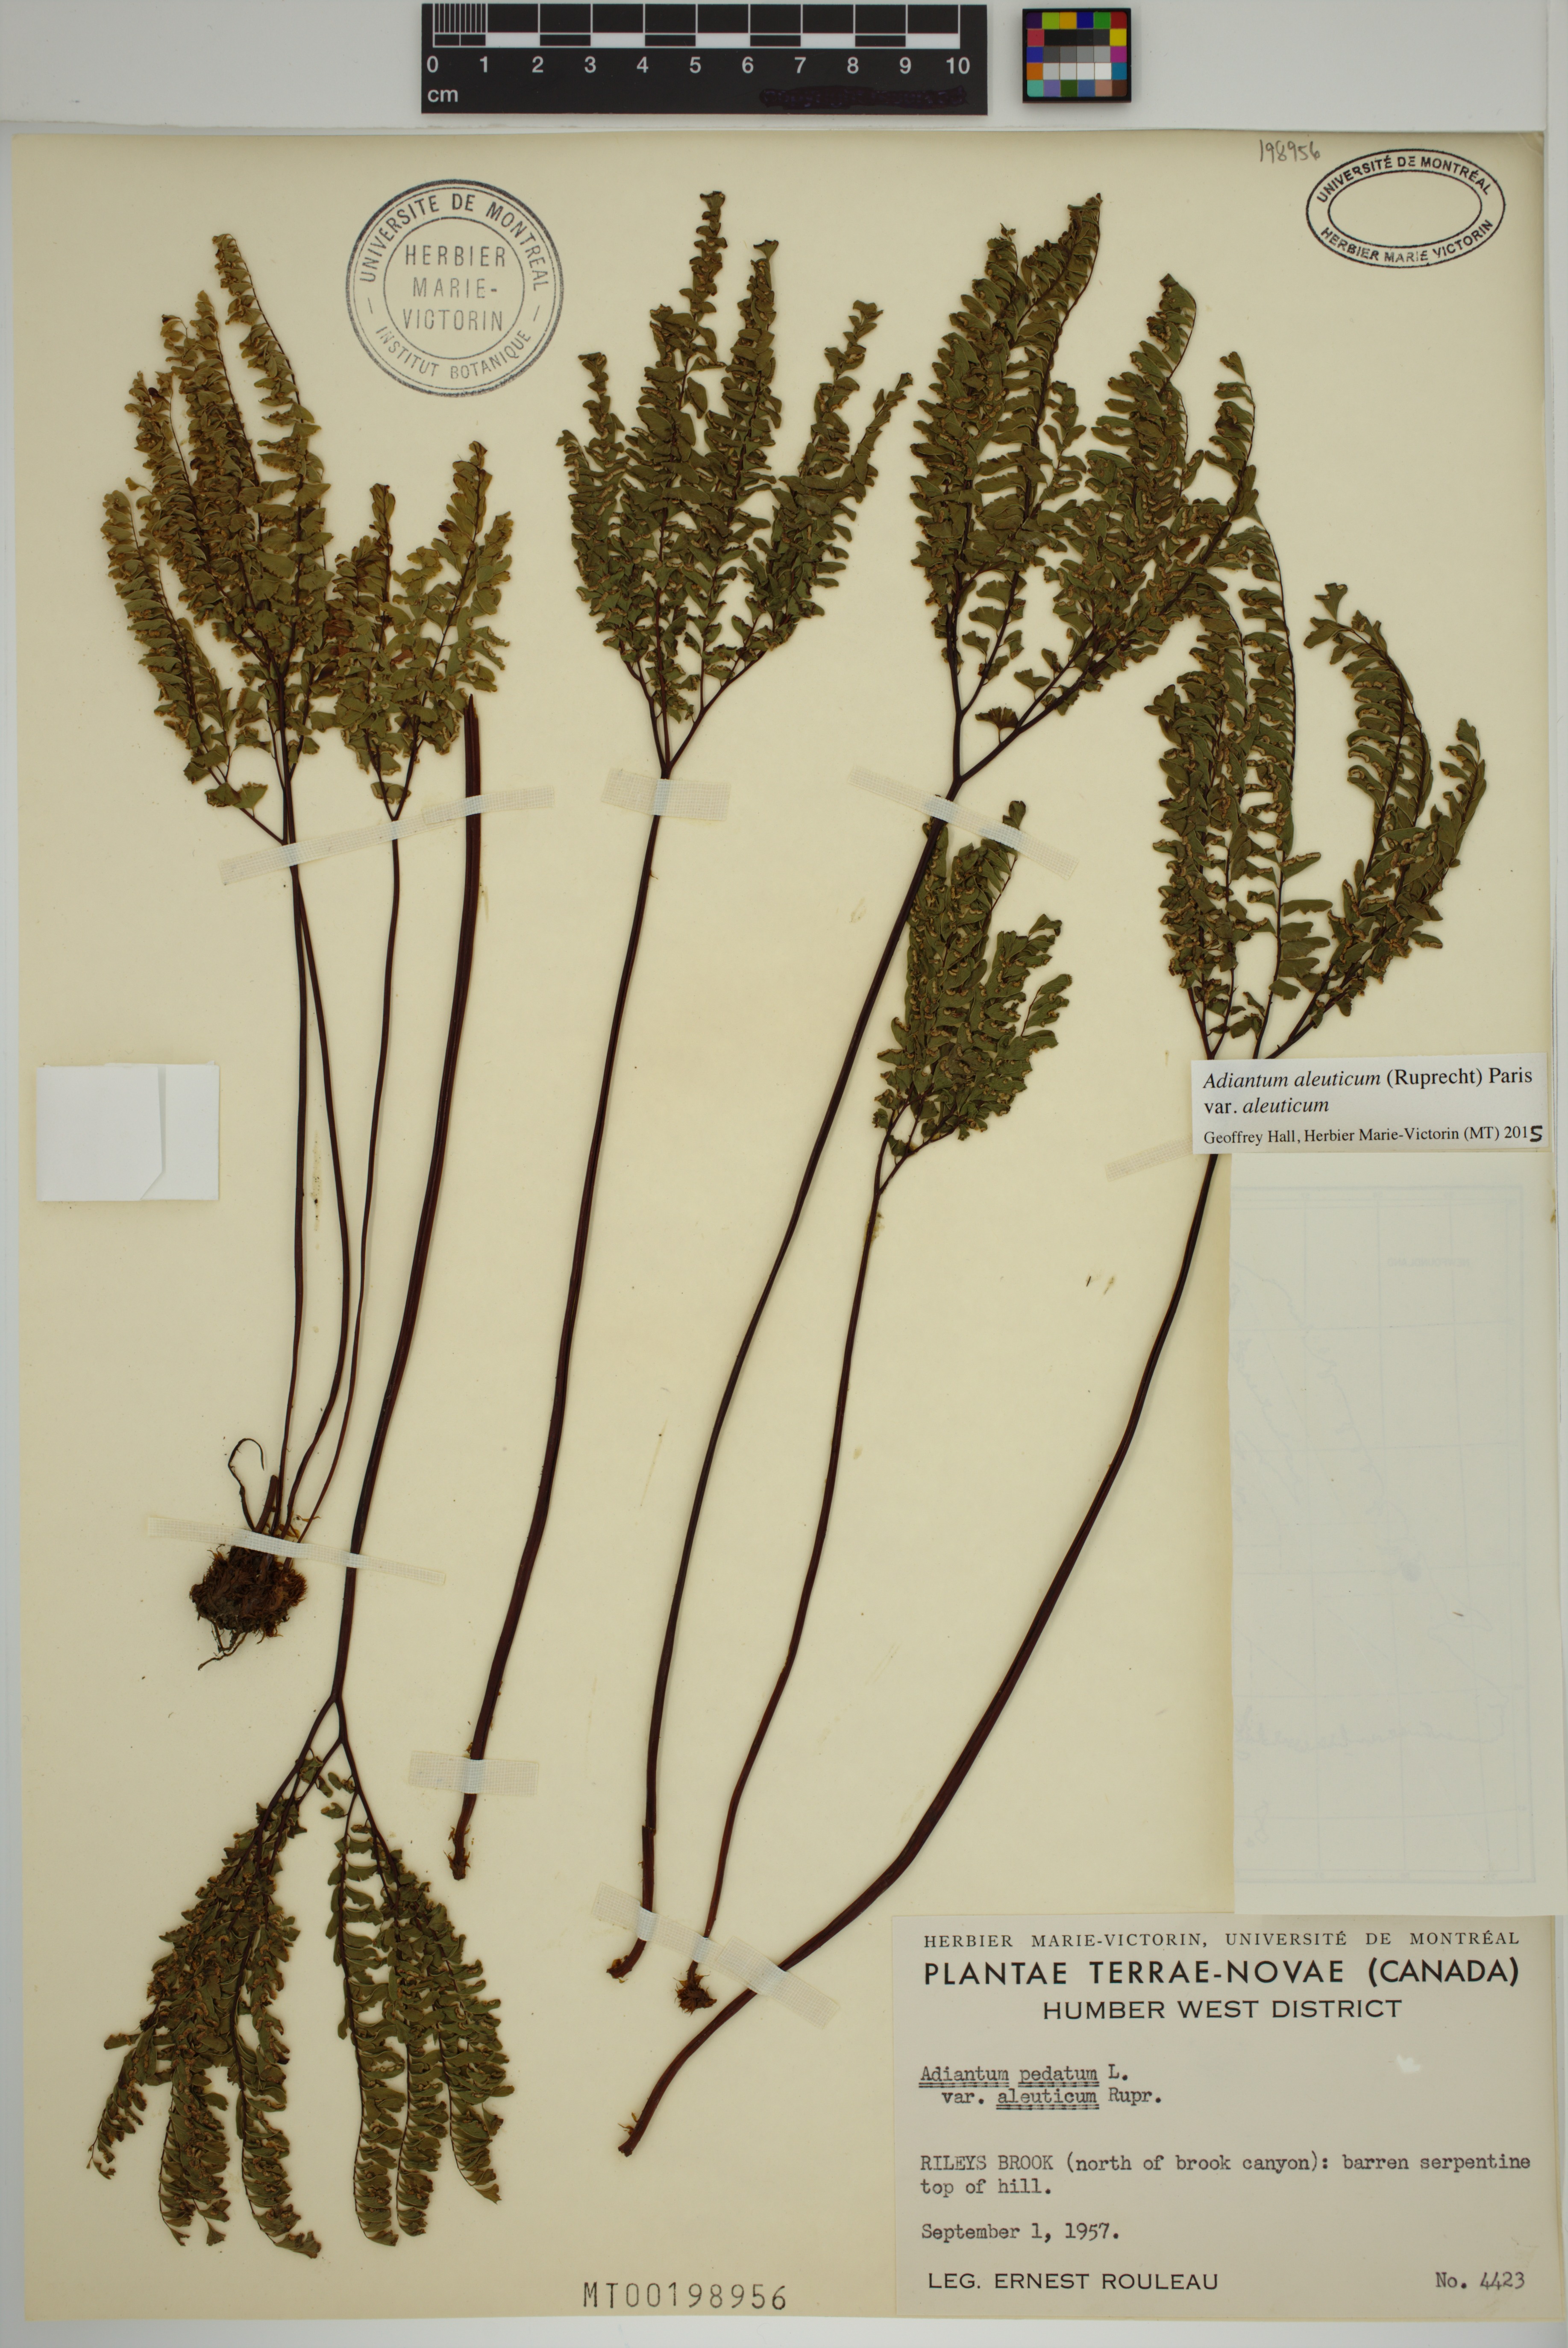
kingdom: Plantae
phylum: Tracheophyta
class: Polypodiopsida
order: Polypodiales
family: Pteridaceae
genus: Adiantum
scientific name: Adiantum aleuticum
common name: Aleutian maidenhair fern
